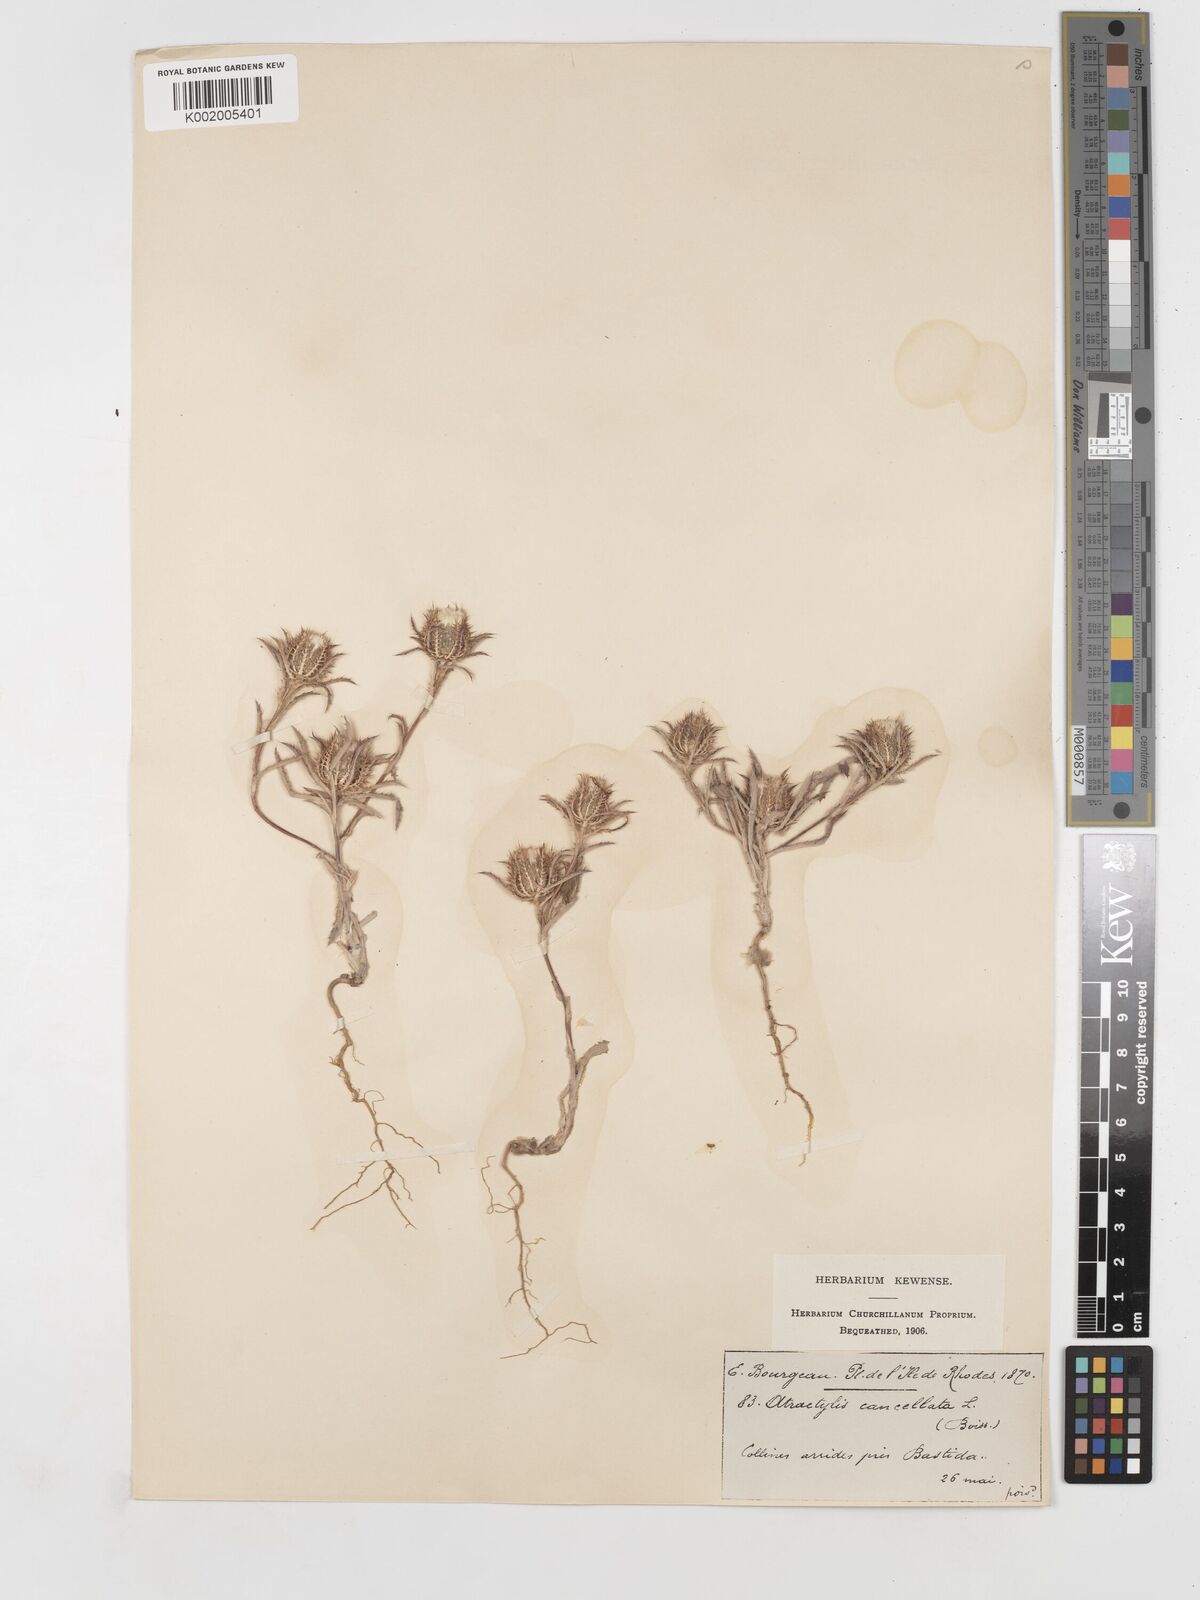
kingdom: Plantae
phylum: Tracheophyta
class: Magnoliopsida
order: Asterales
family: Asteraceae
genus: Atractylis
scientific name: Atractylis cancellata
